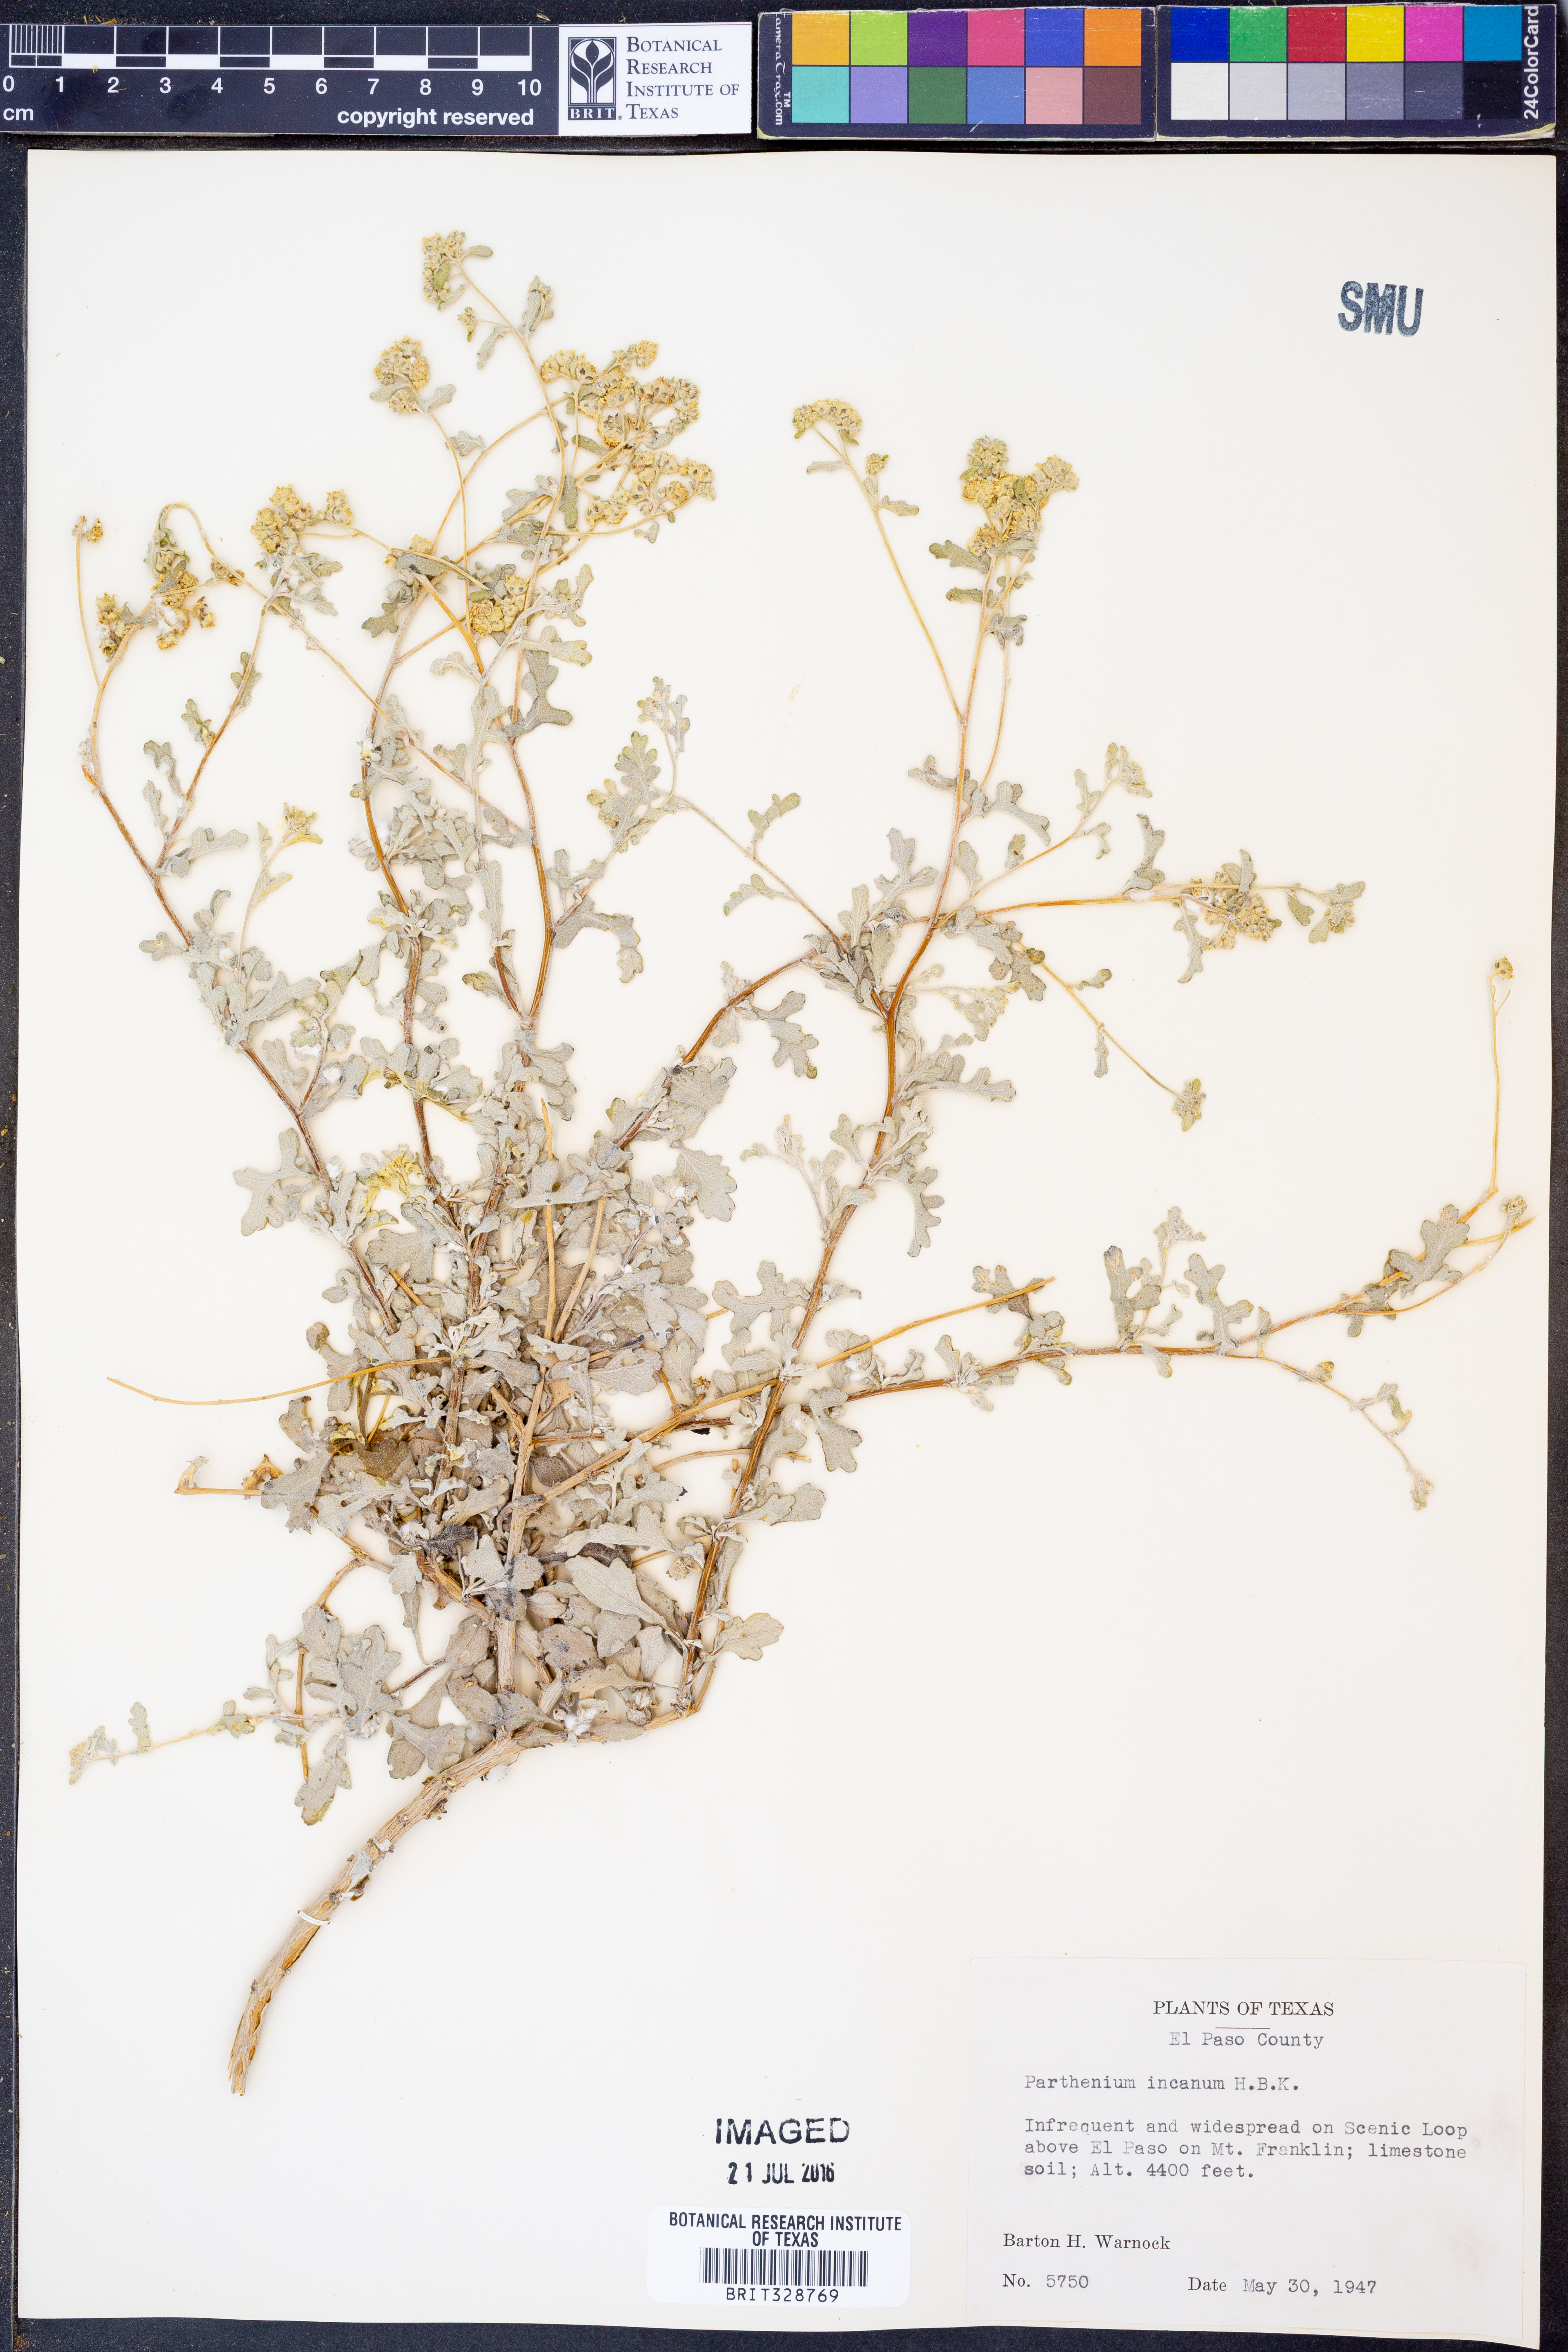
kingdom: Plantae
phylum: Tracheophyta
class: Magnoliopsida
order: Asterales
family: Asteraceae
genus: Parthenium
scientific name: Parthenium incanum
